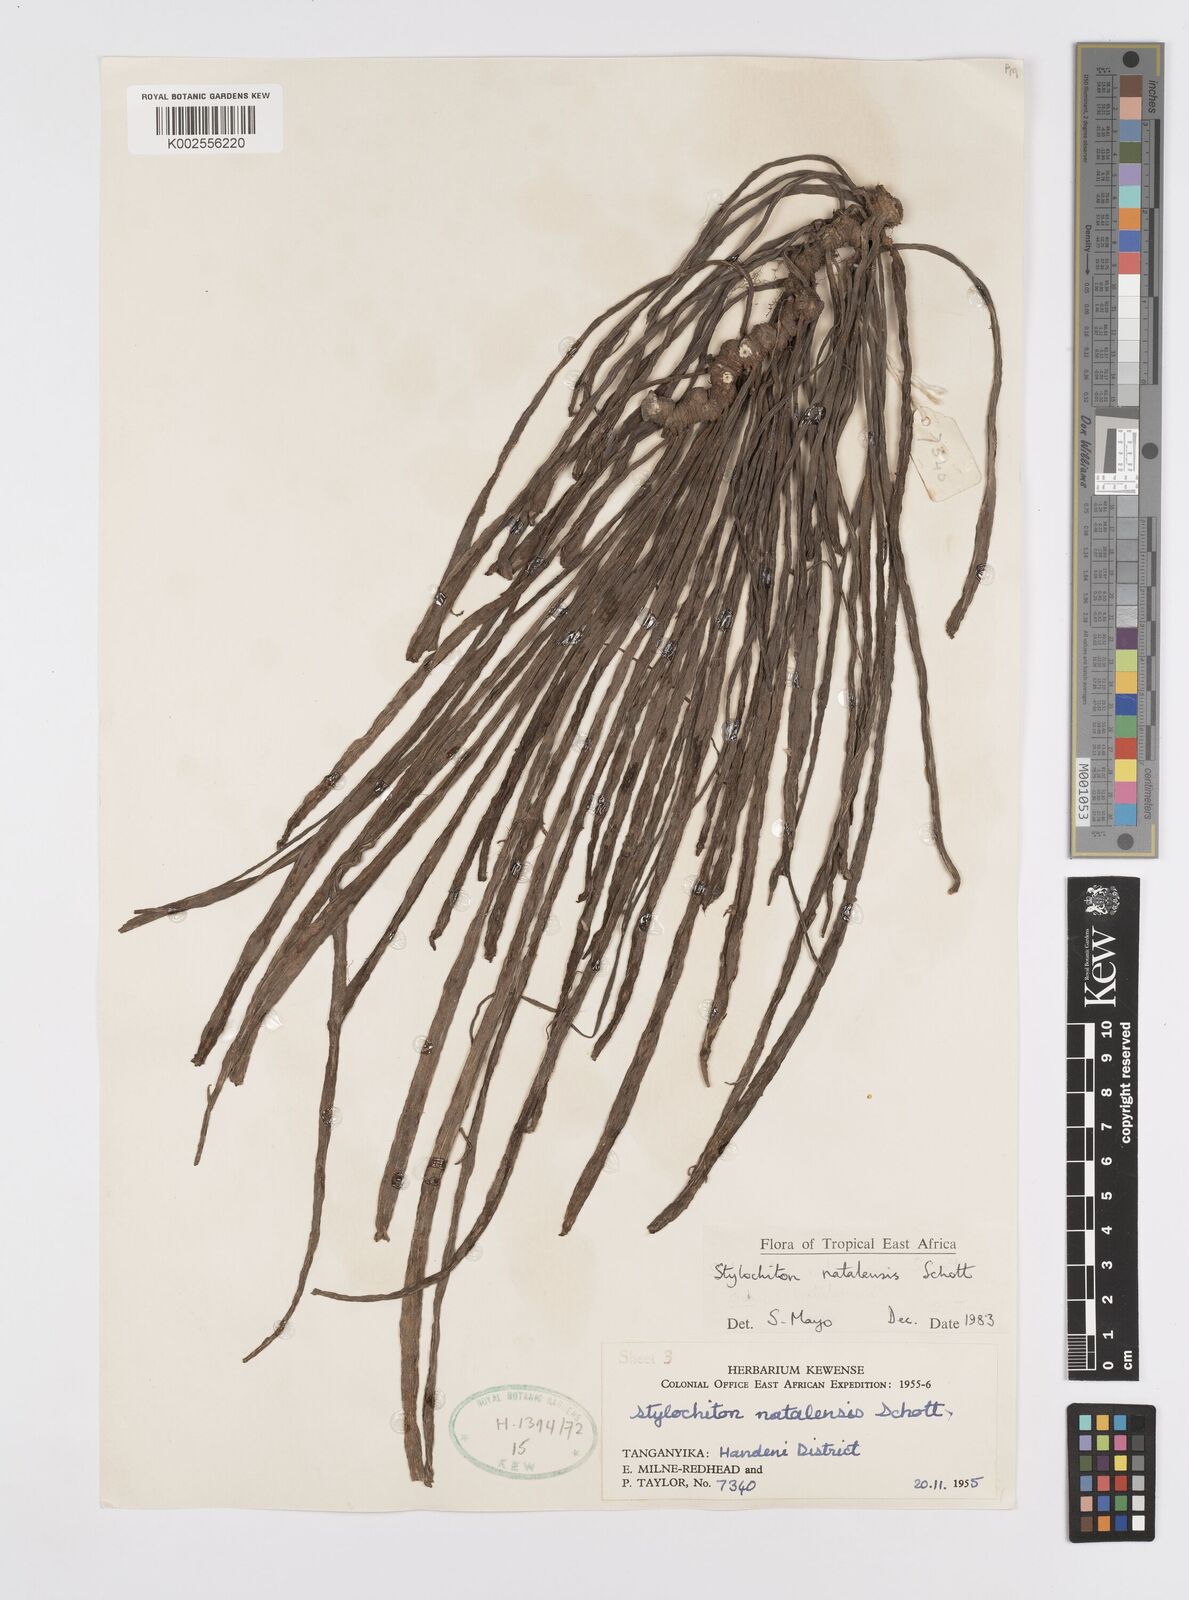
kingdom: Plantae
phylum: Tracheophyta
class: Liliopsida
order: Alismatales
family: Araceae
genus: Stylochaeton
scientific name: Stylochaeton natalense
